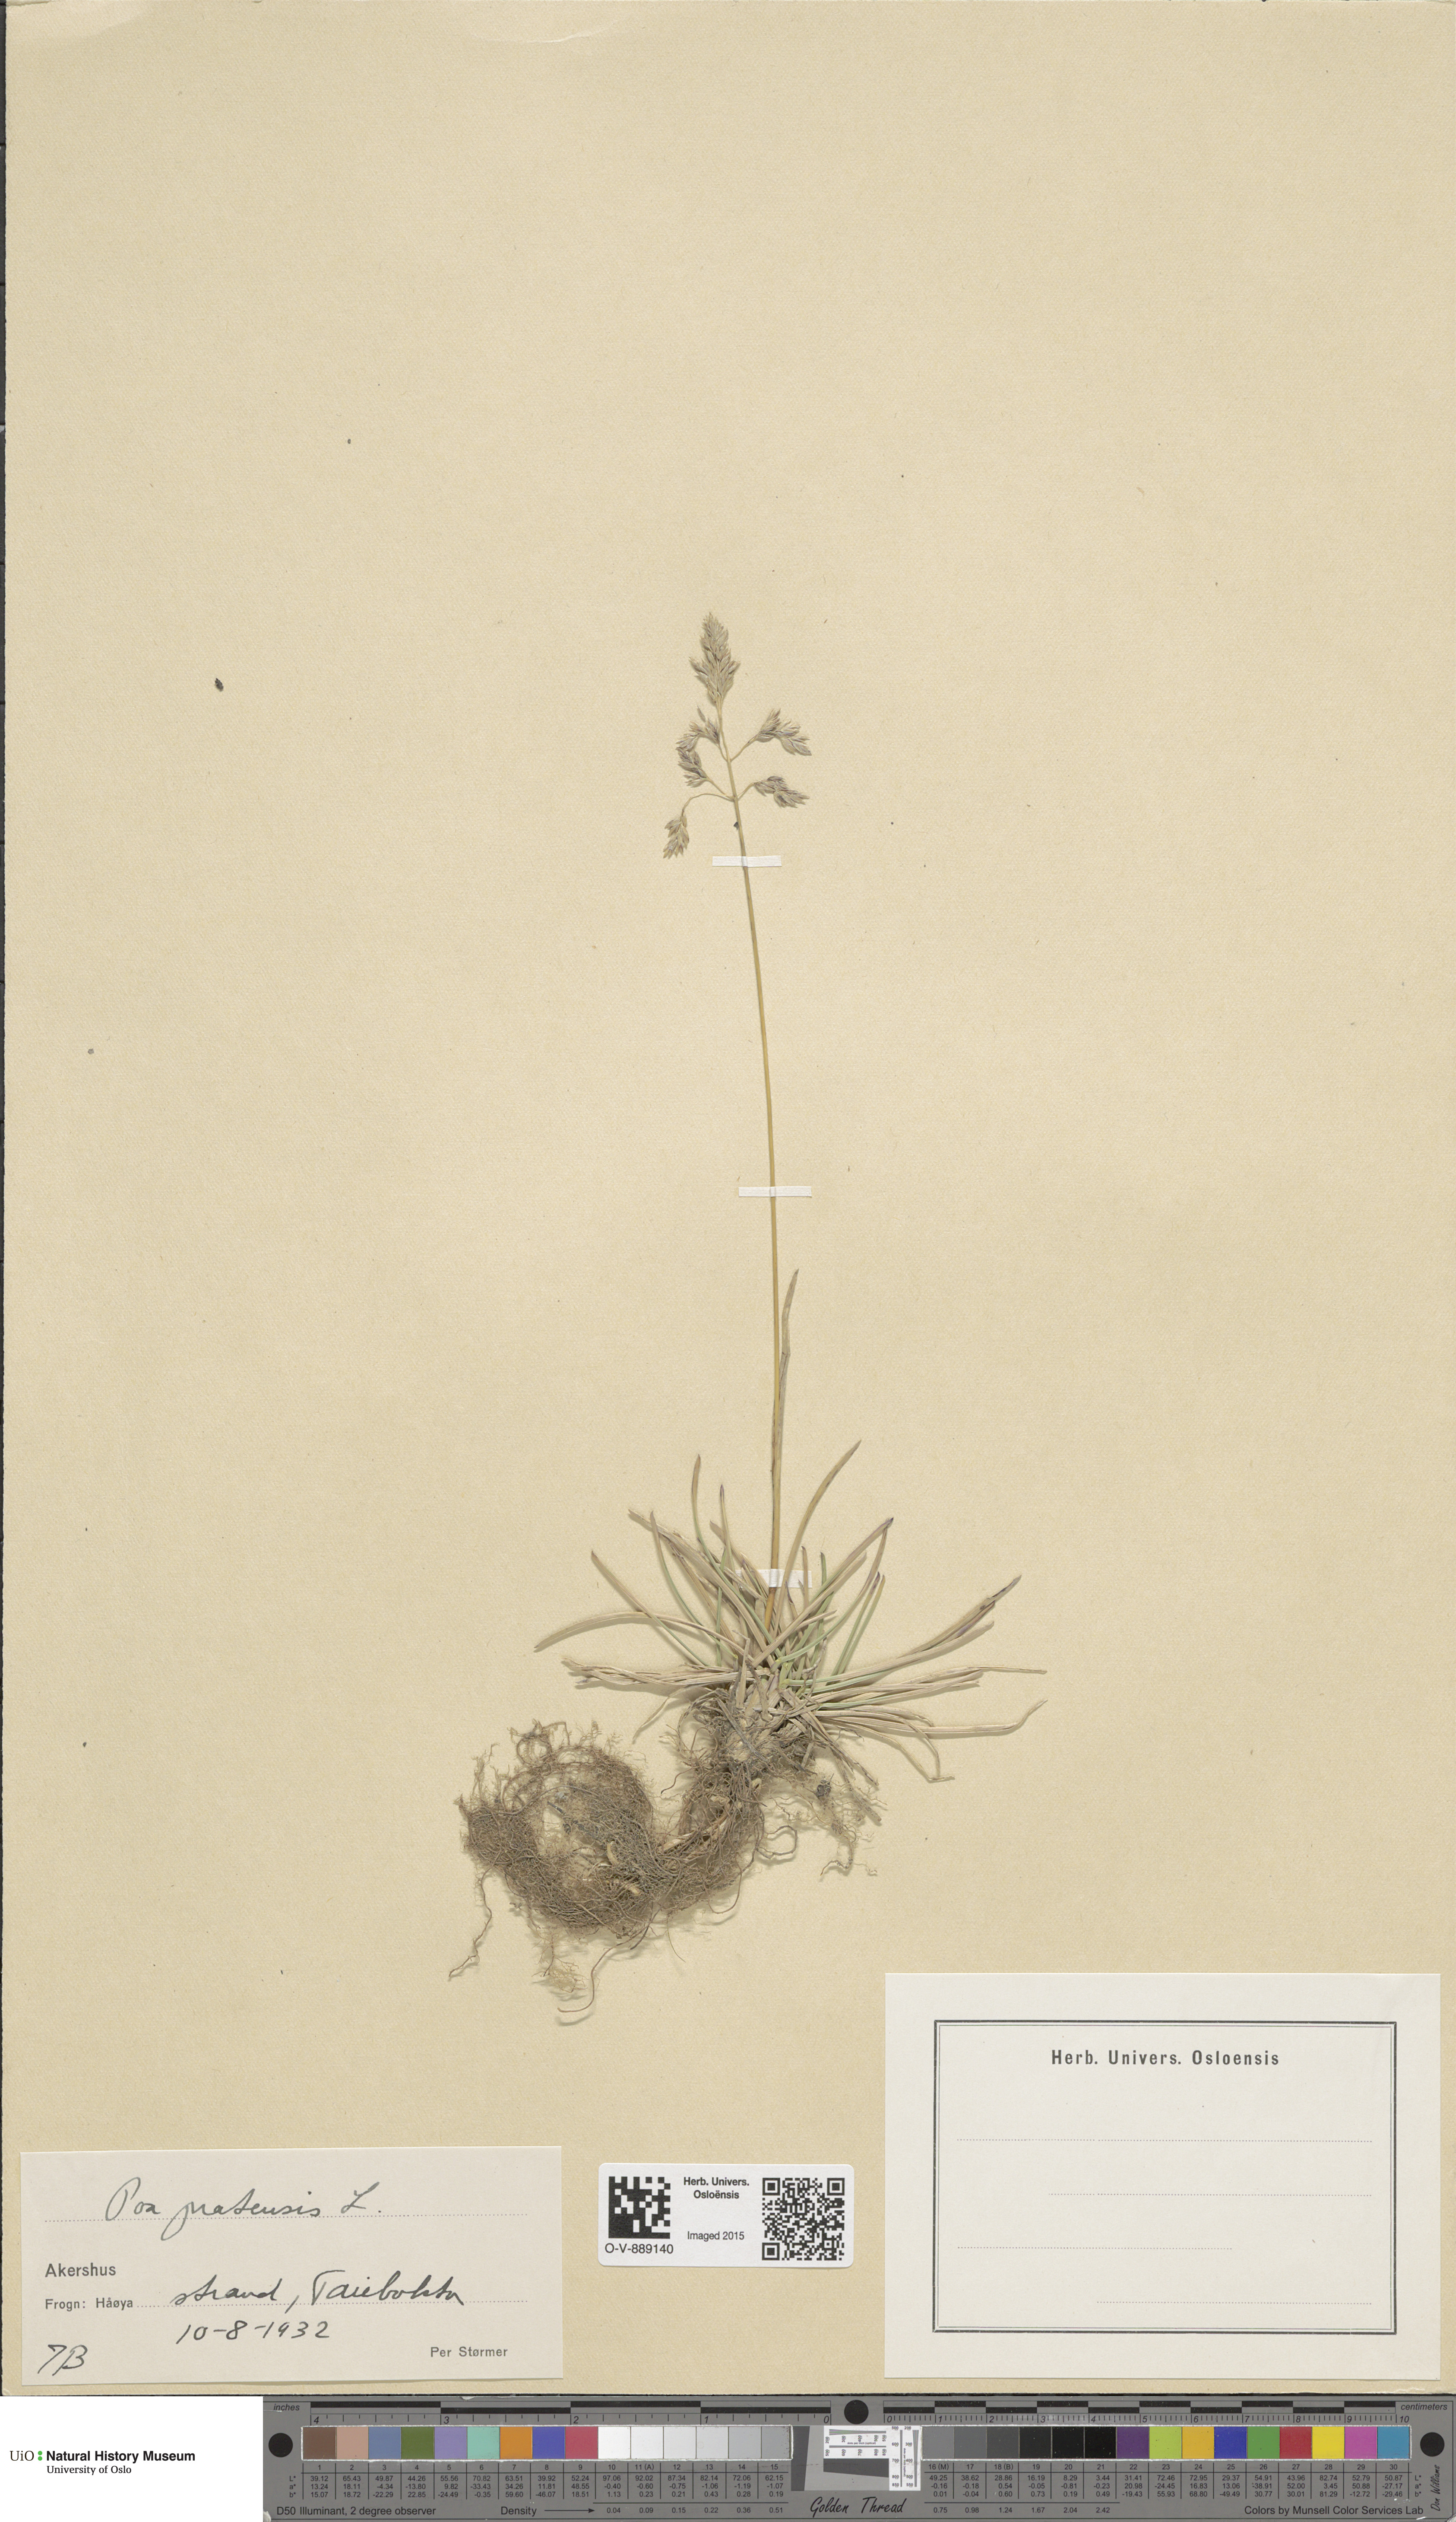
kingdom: Plantae
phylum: Tracheophyta
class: Liliopsida
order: Poales
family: Poaceae
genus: Poa
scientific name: Poa pratensis
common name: Kentucky bluegrass
